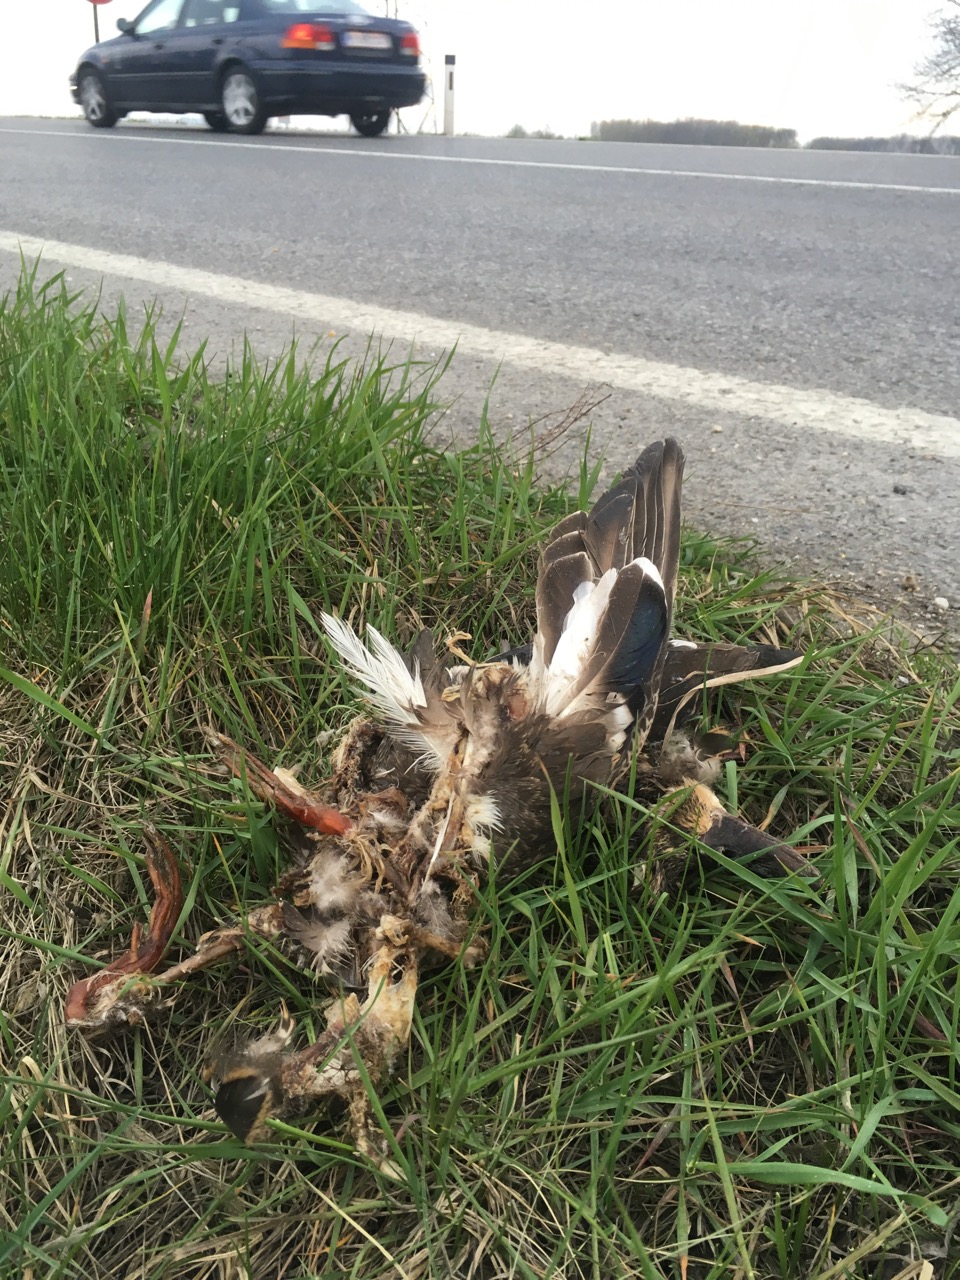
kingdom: Animalia
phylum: Chordata
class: Aves
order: Anseriformes
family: Anatidae
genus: Anas
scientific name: Anas platyrhynchos
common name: Mallard
